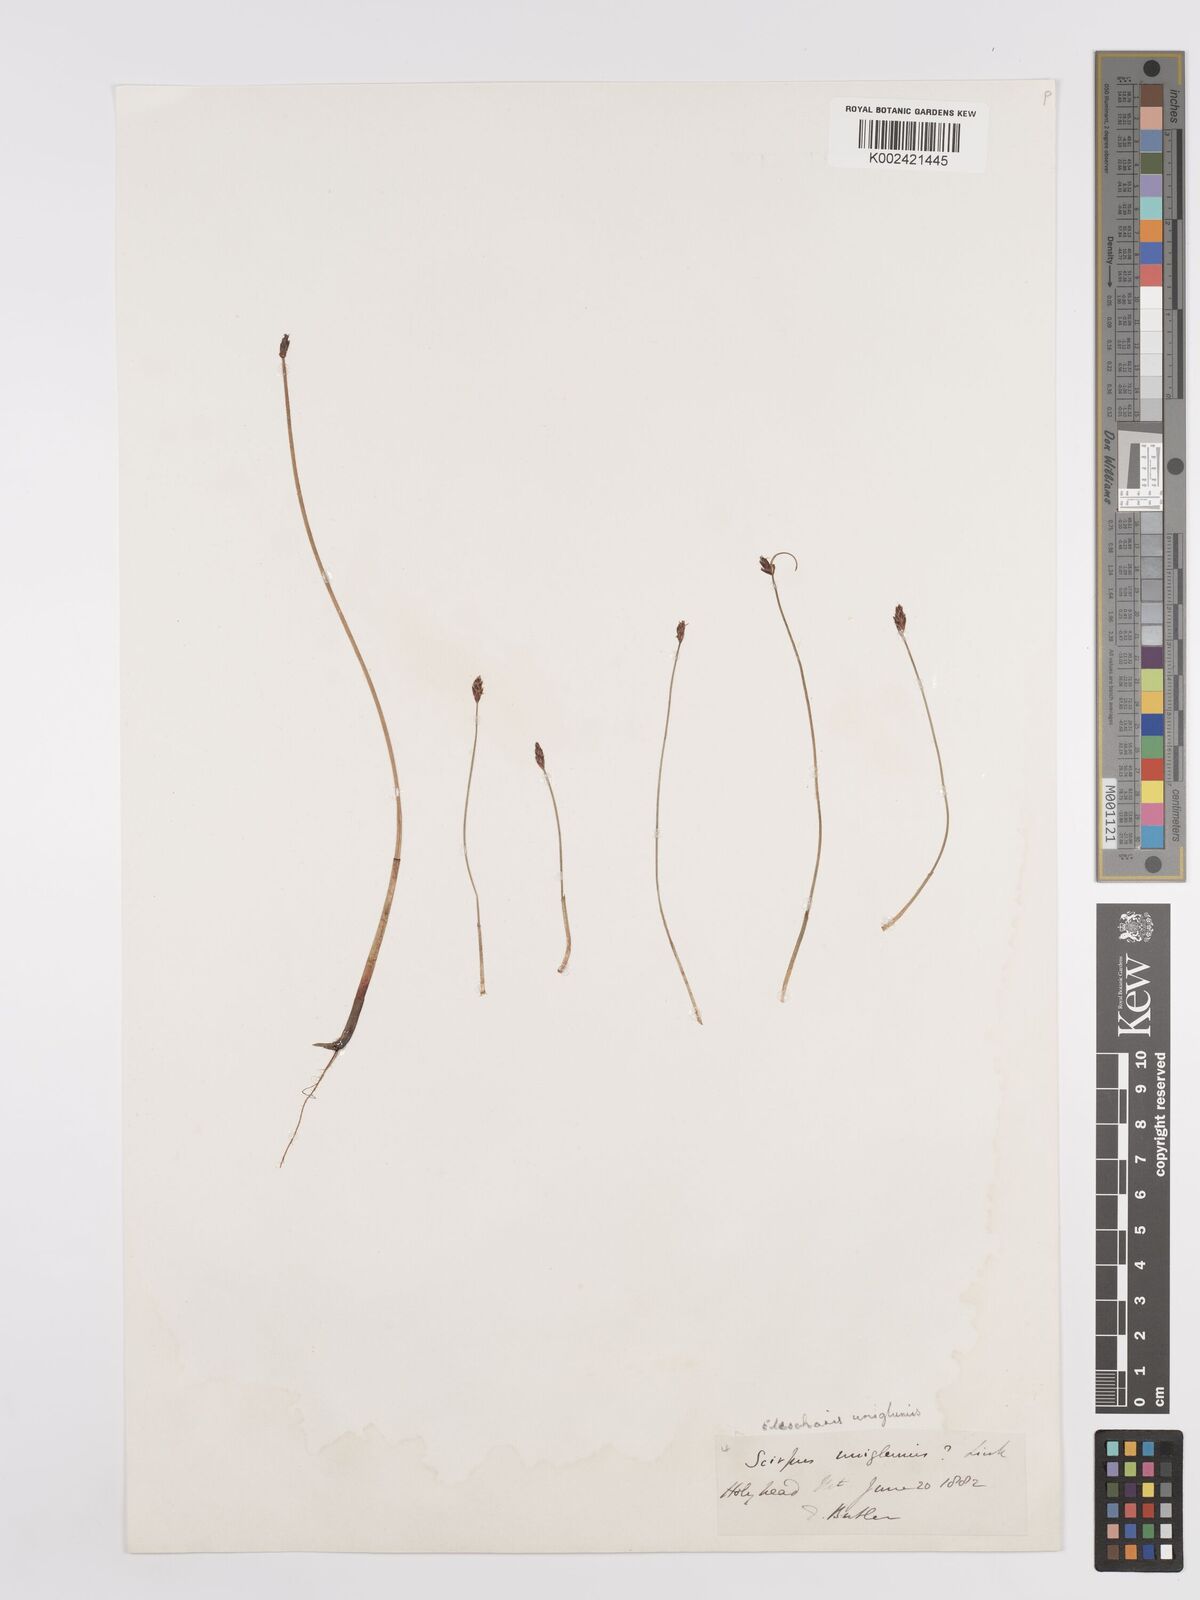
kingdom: Plantae
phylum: Tracheophyta
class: Liliopsida
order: Poales
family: Cyperaceae
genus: Eleocharis
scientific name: Eleocharis uniglumis
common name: Slender spike-rush
